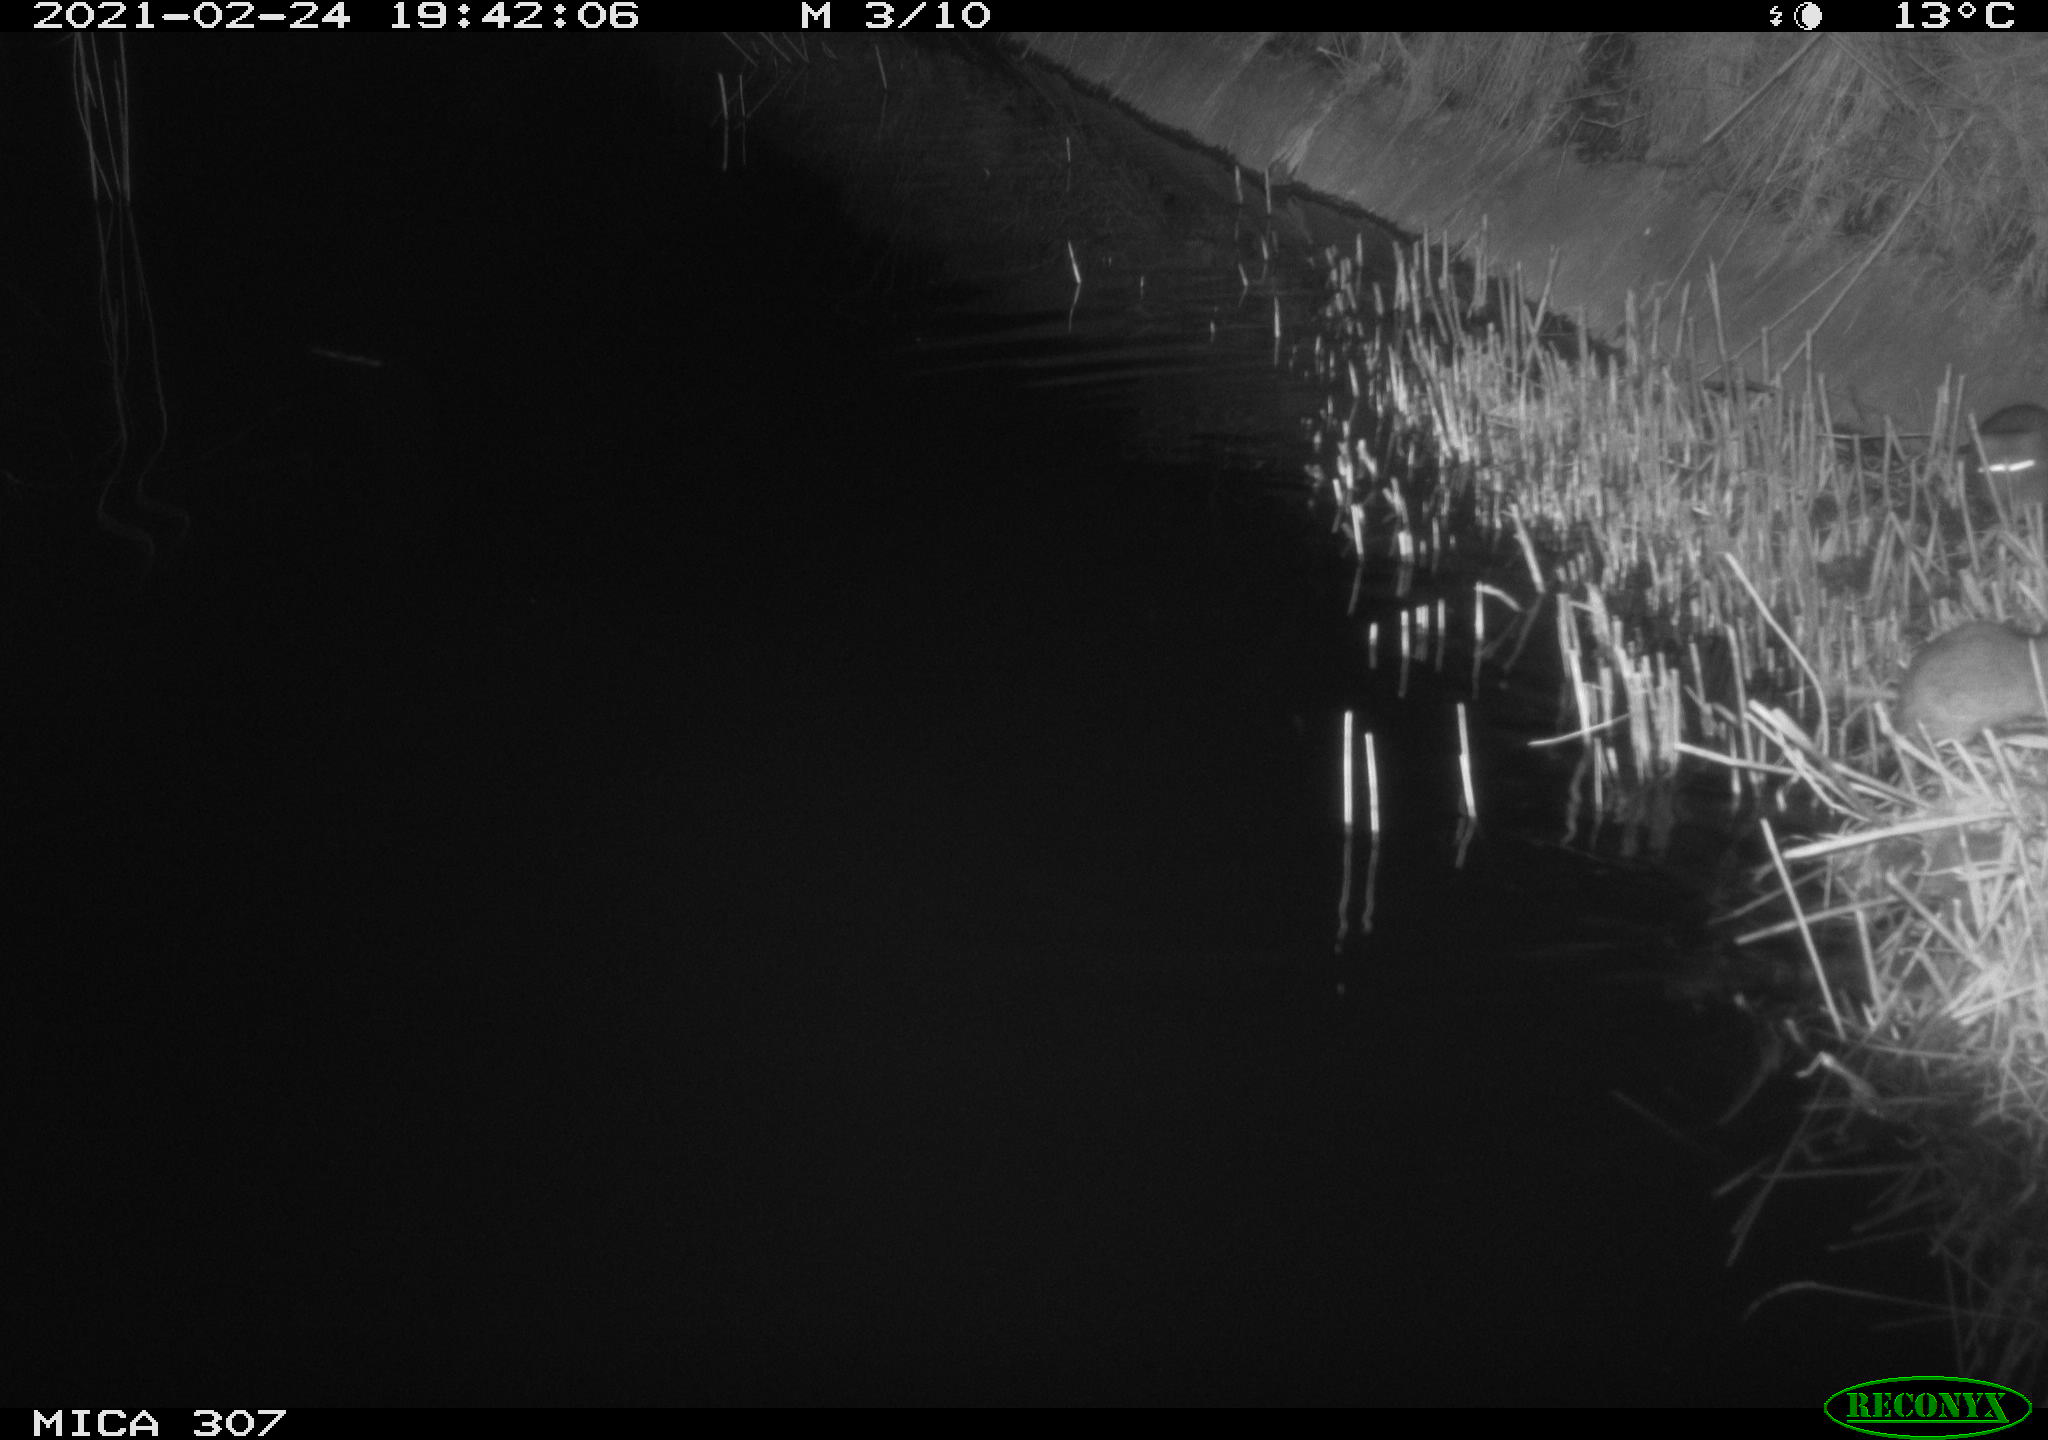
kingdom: Animalia
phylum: Chordata
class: Mammalia
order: Rodentia
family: Muridae
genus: Rattus
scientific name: Rattus norvegicus
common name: Brown rat
